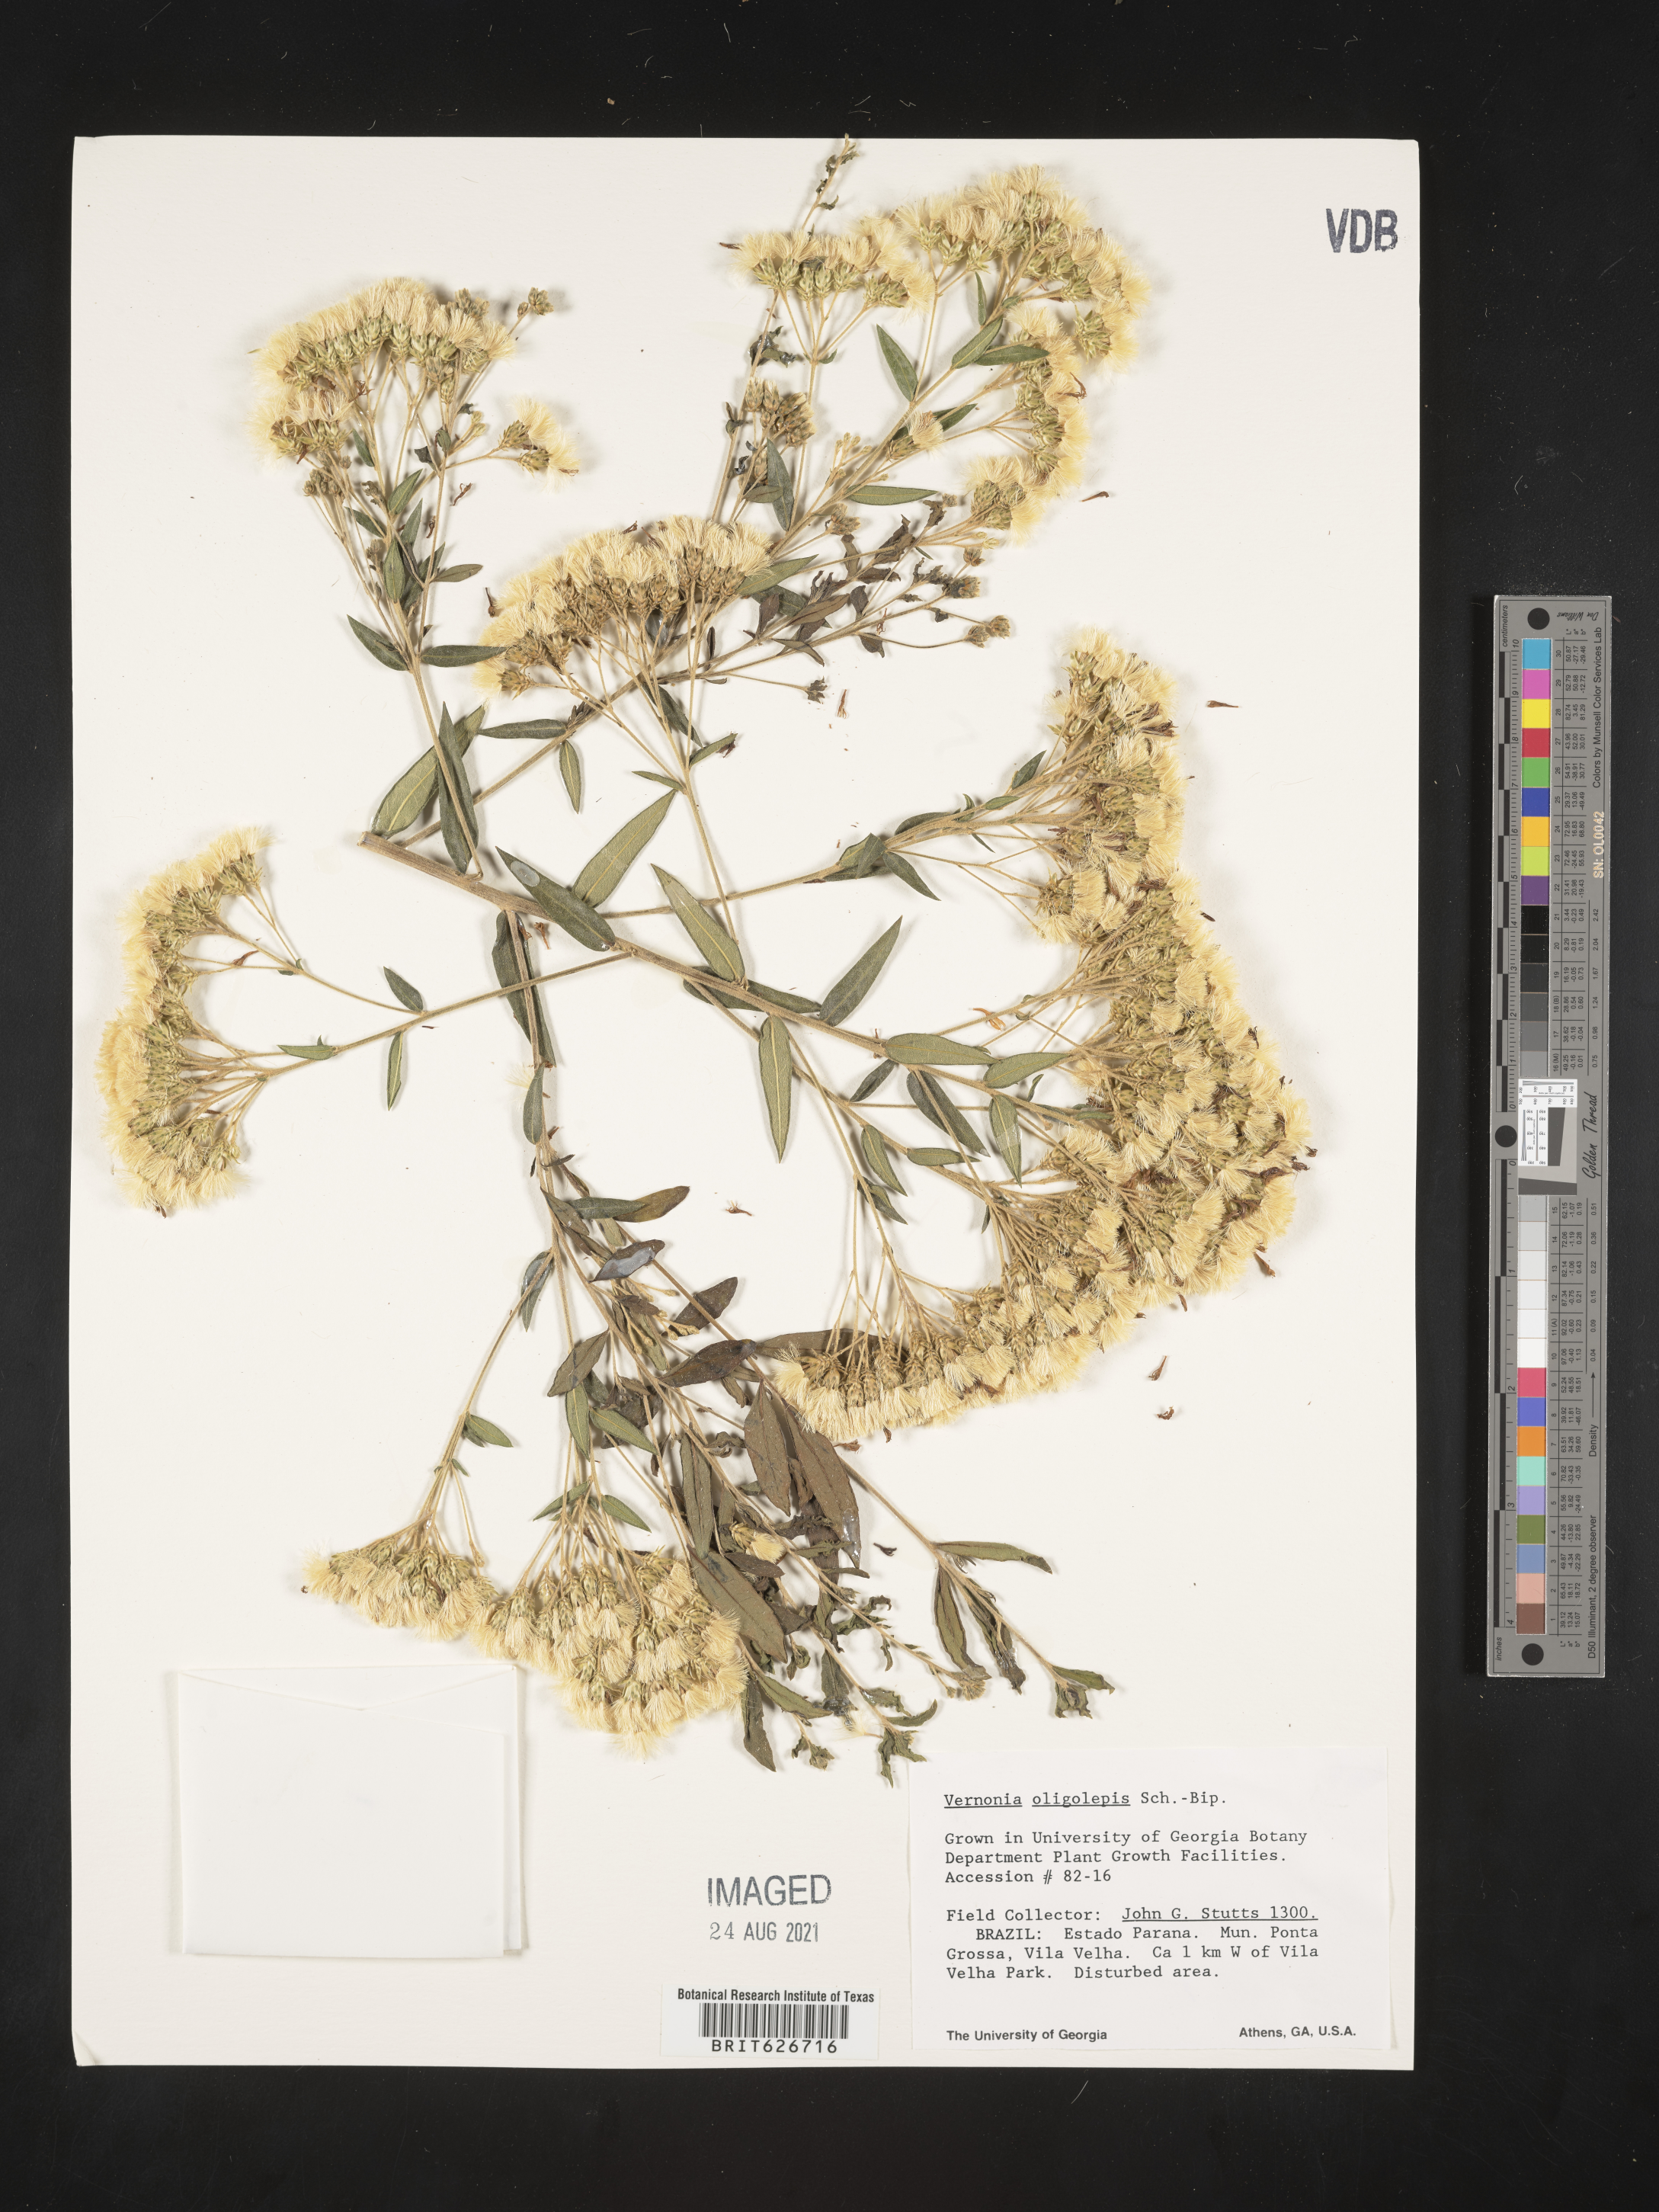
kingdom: Plantae
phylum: Tracheophyta
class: Magnoliopsida
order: Asterales
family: Asteraceae
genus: Vernonia
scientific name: Vernonia oligolepis
